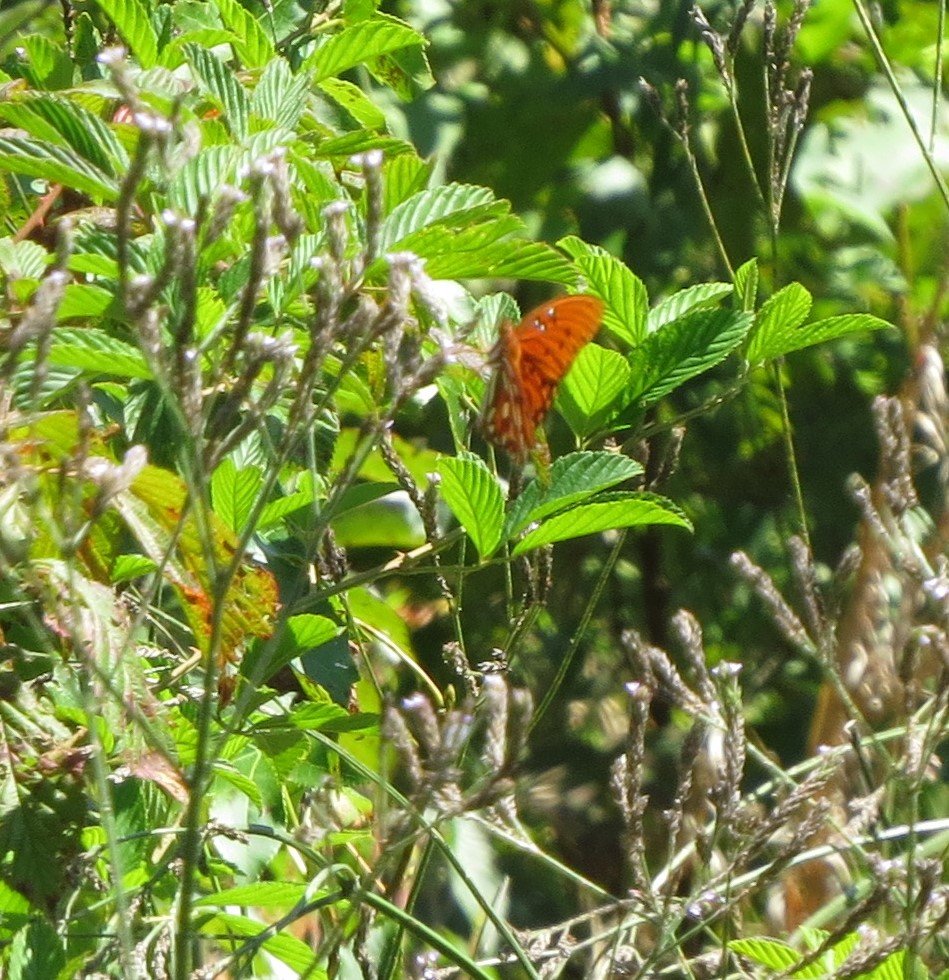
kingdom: Animalia
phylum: Arthropoda
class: Insecta
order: Lepidoptera
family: Nymphalidae
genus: Dione
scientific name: Dione vanillae
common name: Gulf Fritillary
